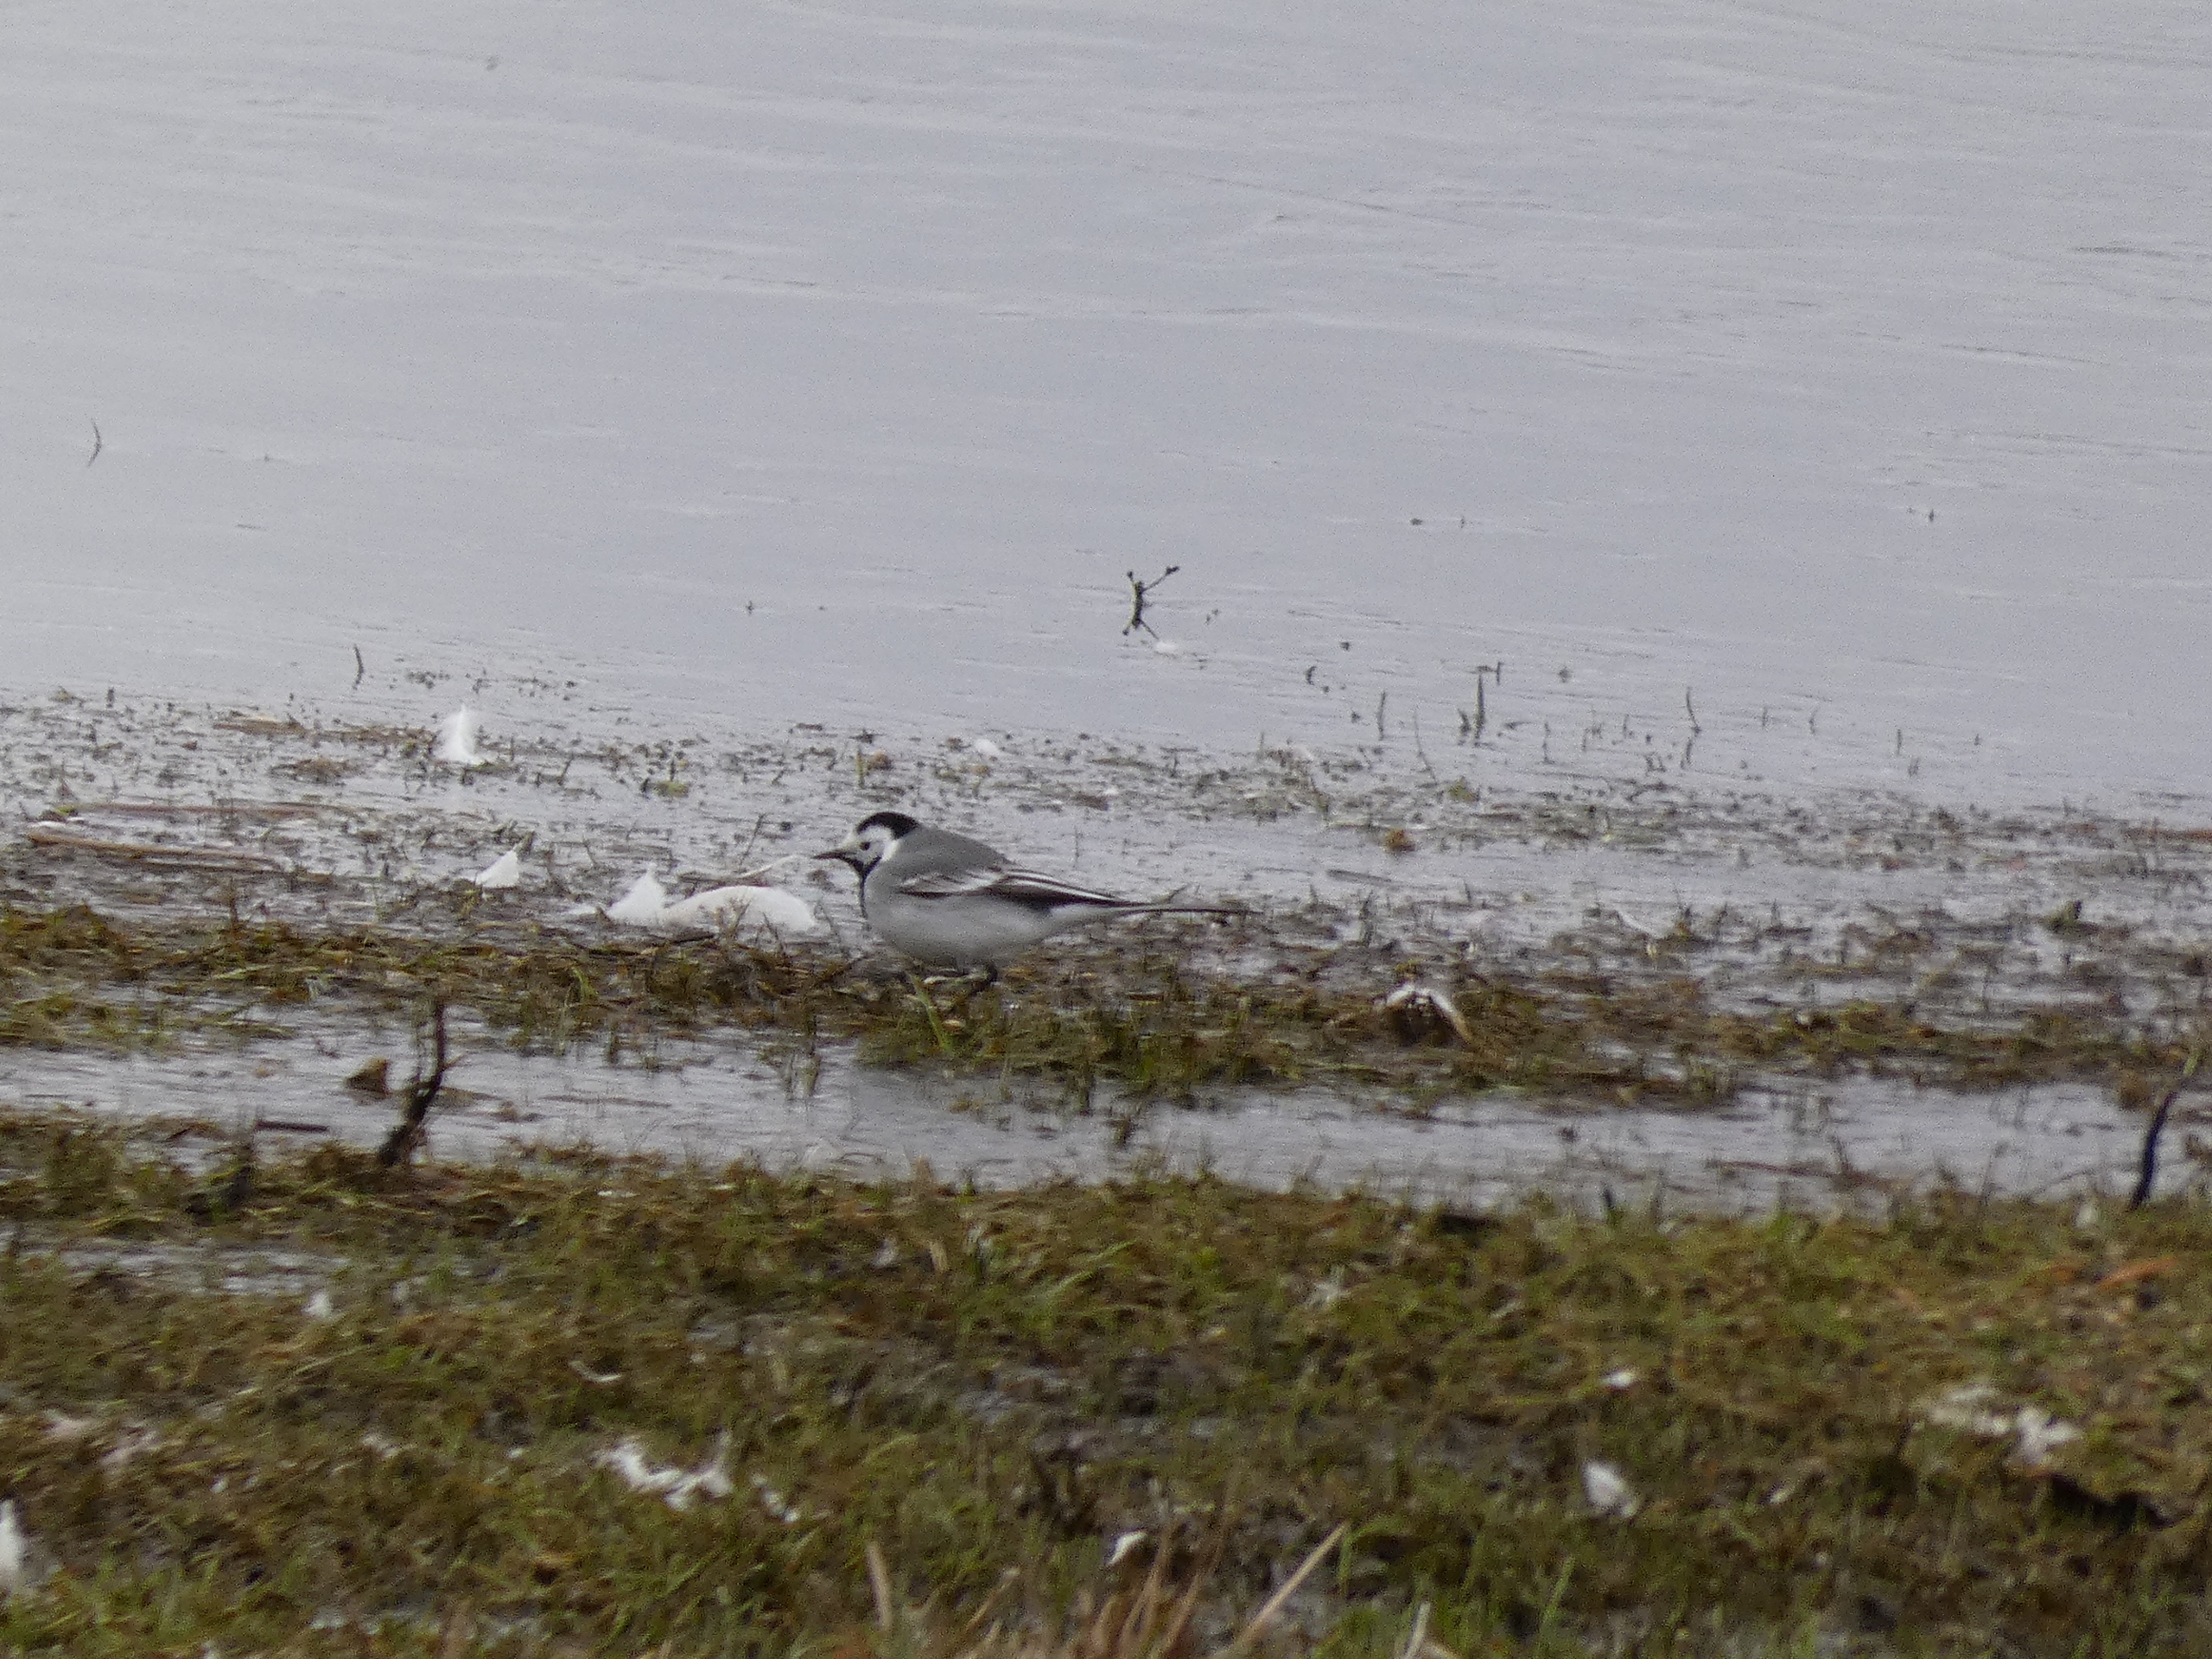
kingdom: Animalia
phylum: Chordata
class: Aves
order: Passeriformes
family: Motacillidae
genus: Motacilla
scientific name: Motacilla alba
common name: Hvid vipstjert
